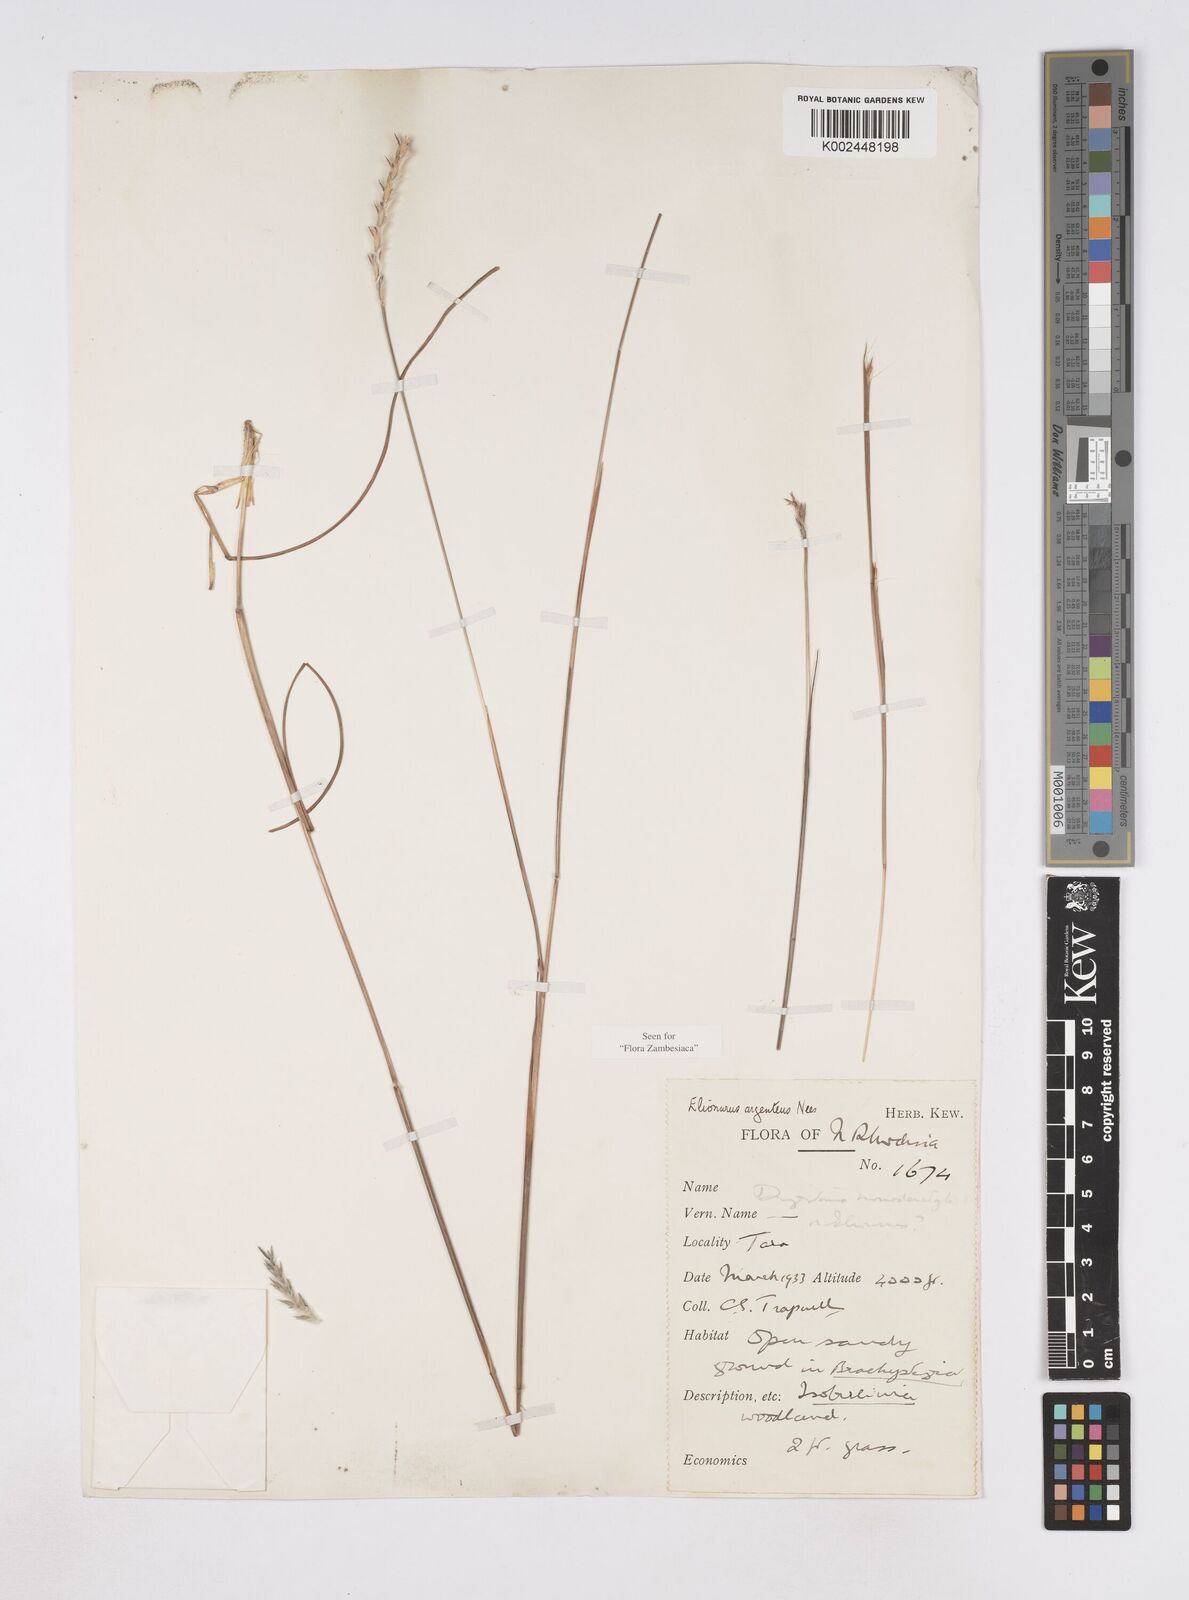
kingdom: Plantae
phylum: Tracheophyta
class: Liliopsida
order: Poales
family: Poaceae
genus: Elionurus
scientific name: Elionurus muticus
